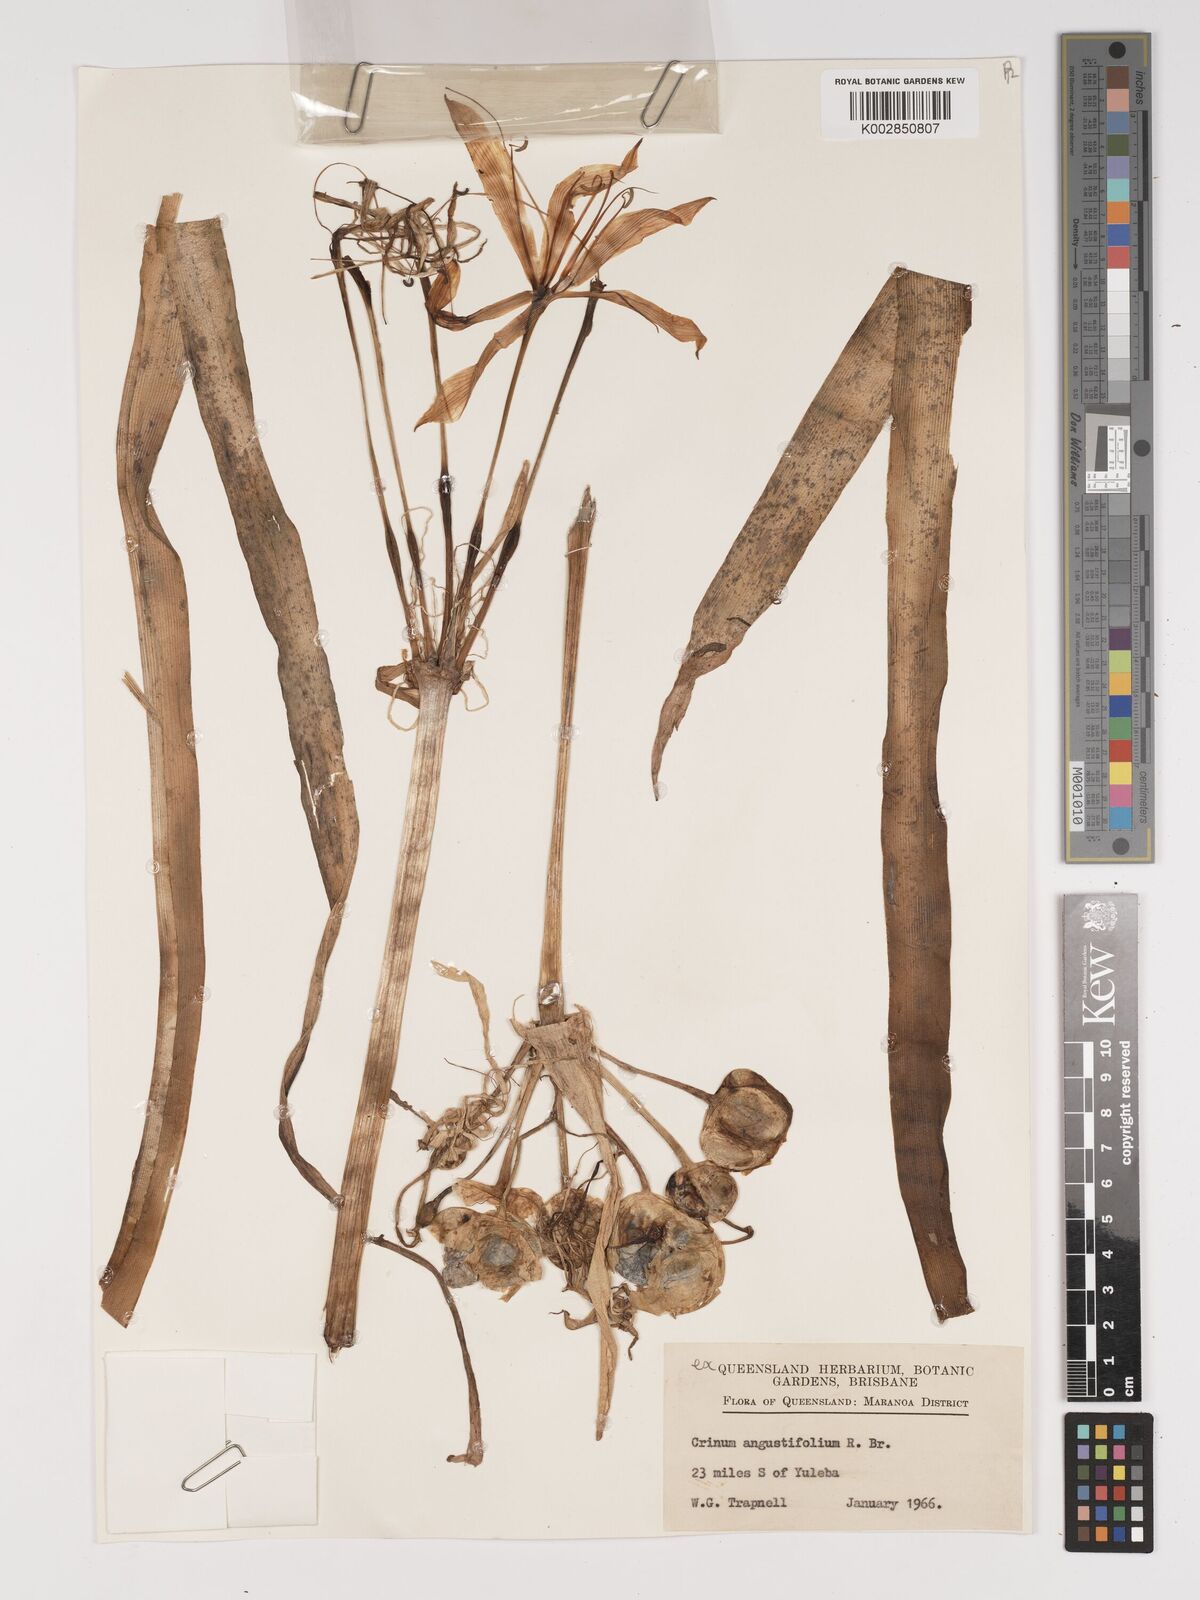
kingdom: Plantae
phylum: Tracheophyta
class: Liliopsida
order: Asparagales
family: Amaryllidaceae
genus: Crinum
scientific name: Crinum arenarium
